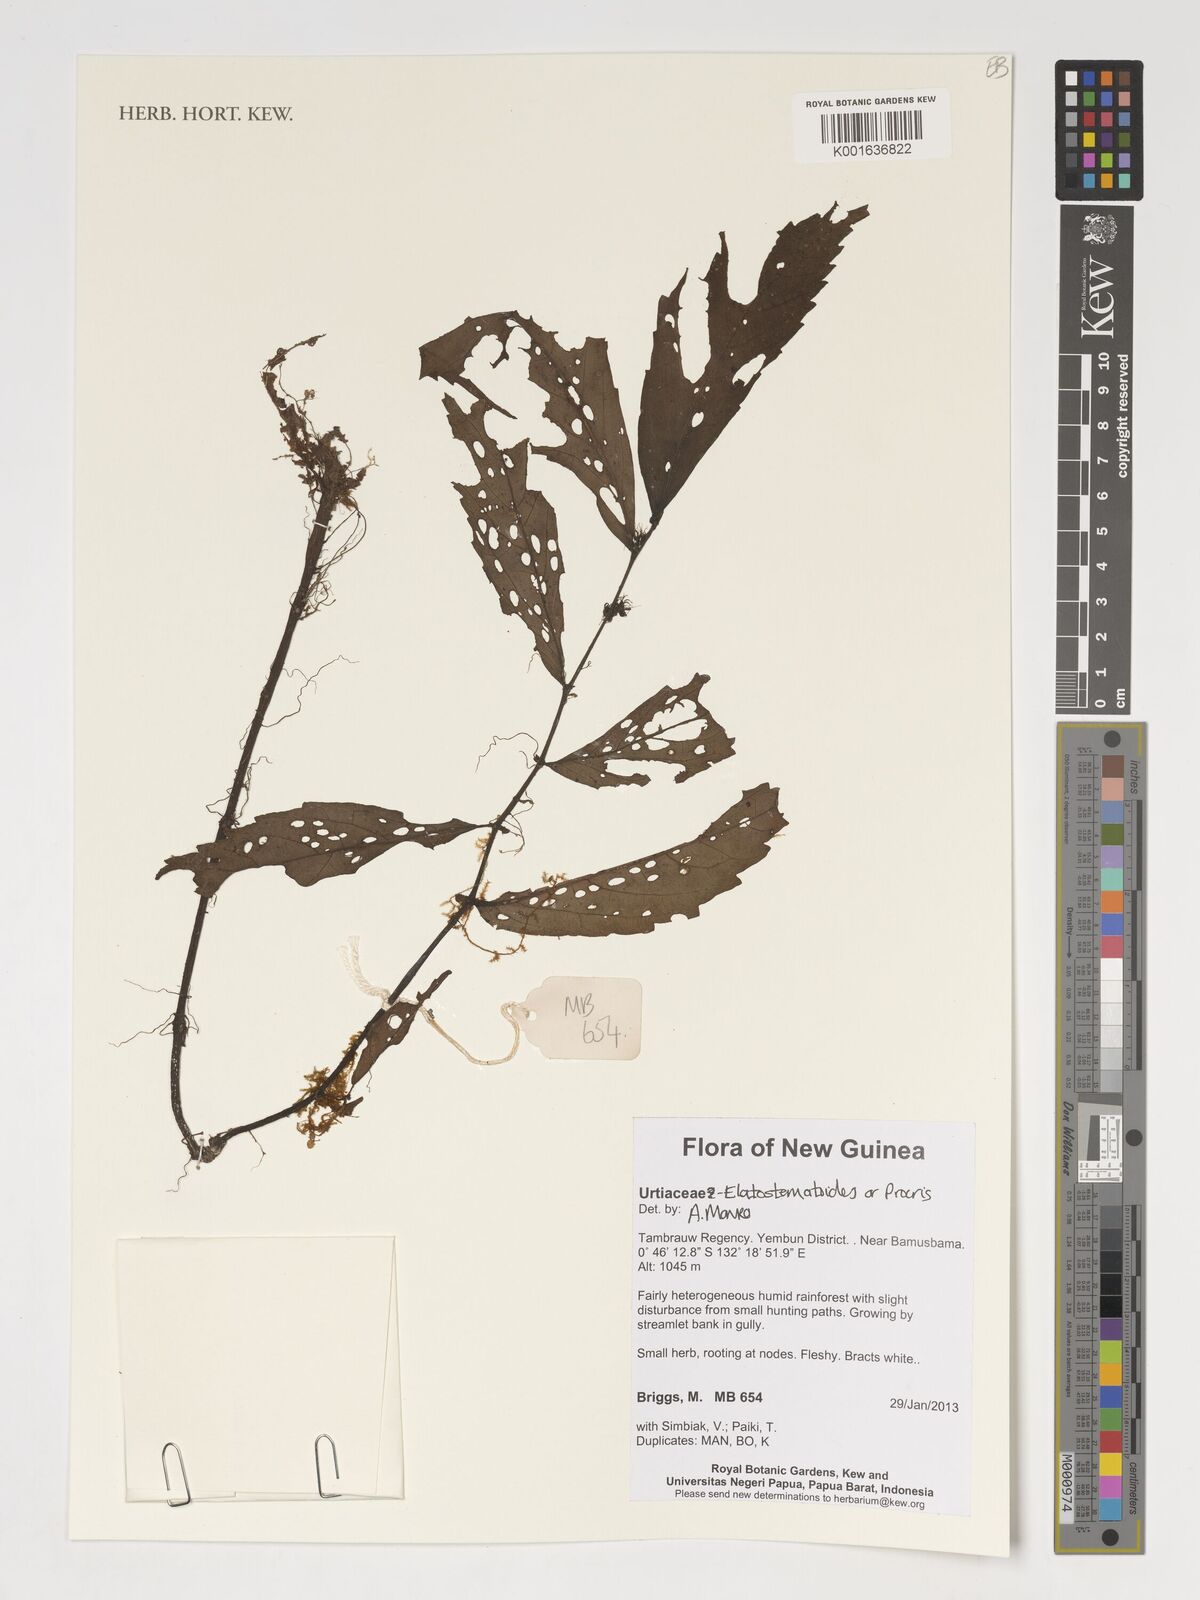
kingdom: Plantae
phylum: Tracheophyta
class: Magnoliopsida
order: Rosales
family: Urticaceae
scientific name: Urticaceae
